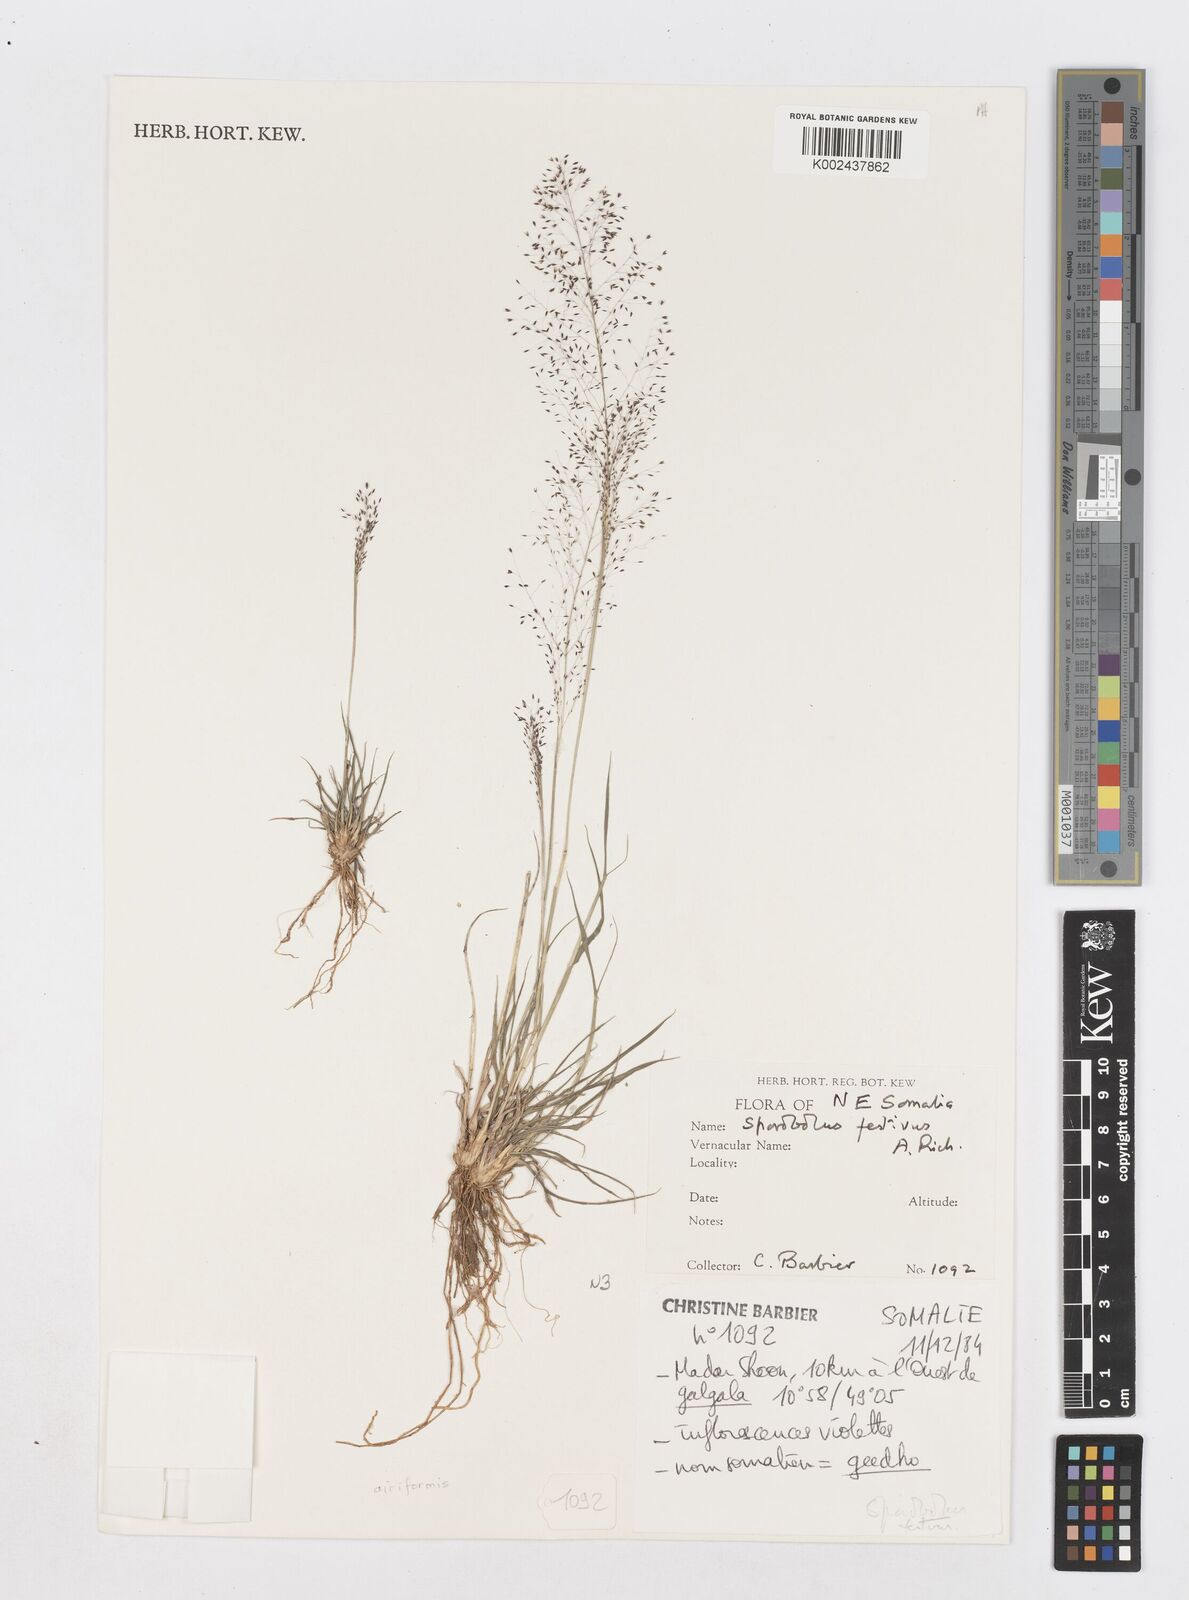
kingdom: Plantae
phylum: Tracheophyta
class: Liliopsida
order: Poales
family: Poaceae
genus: Sporobolus
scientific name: Sporobolus festivus
